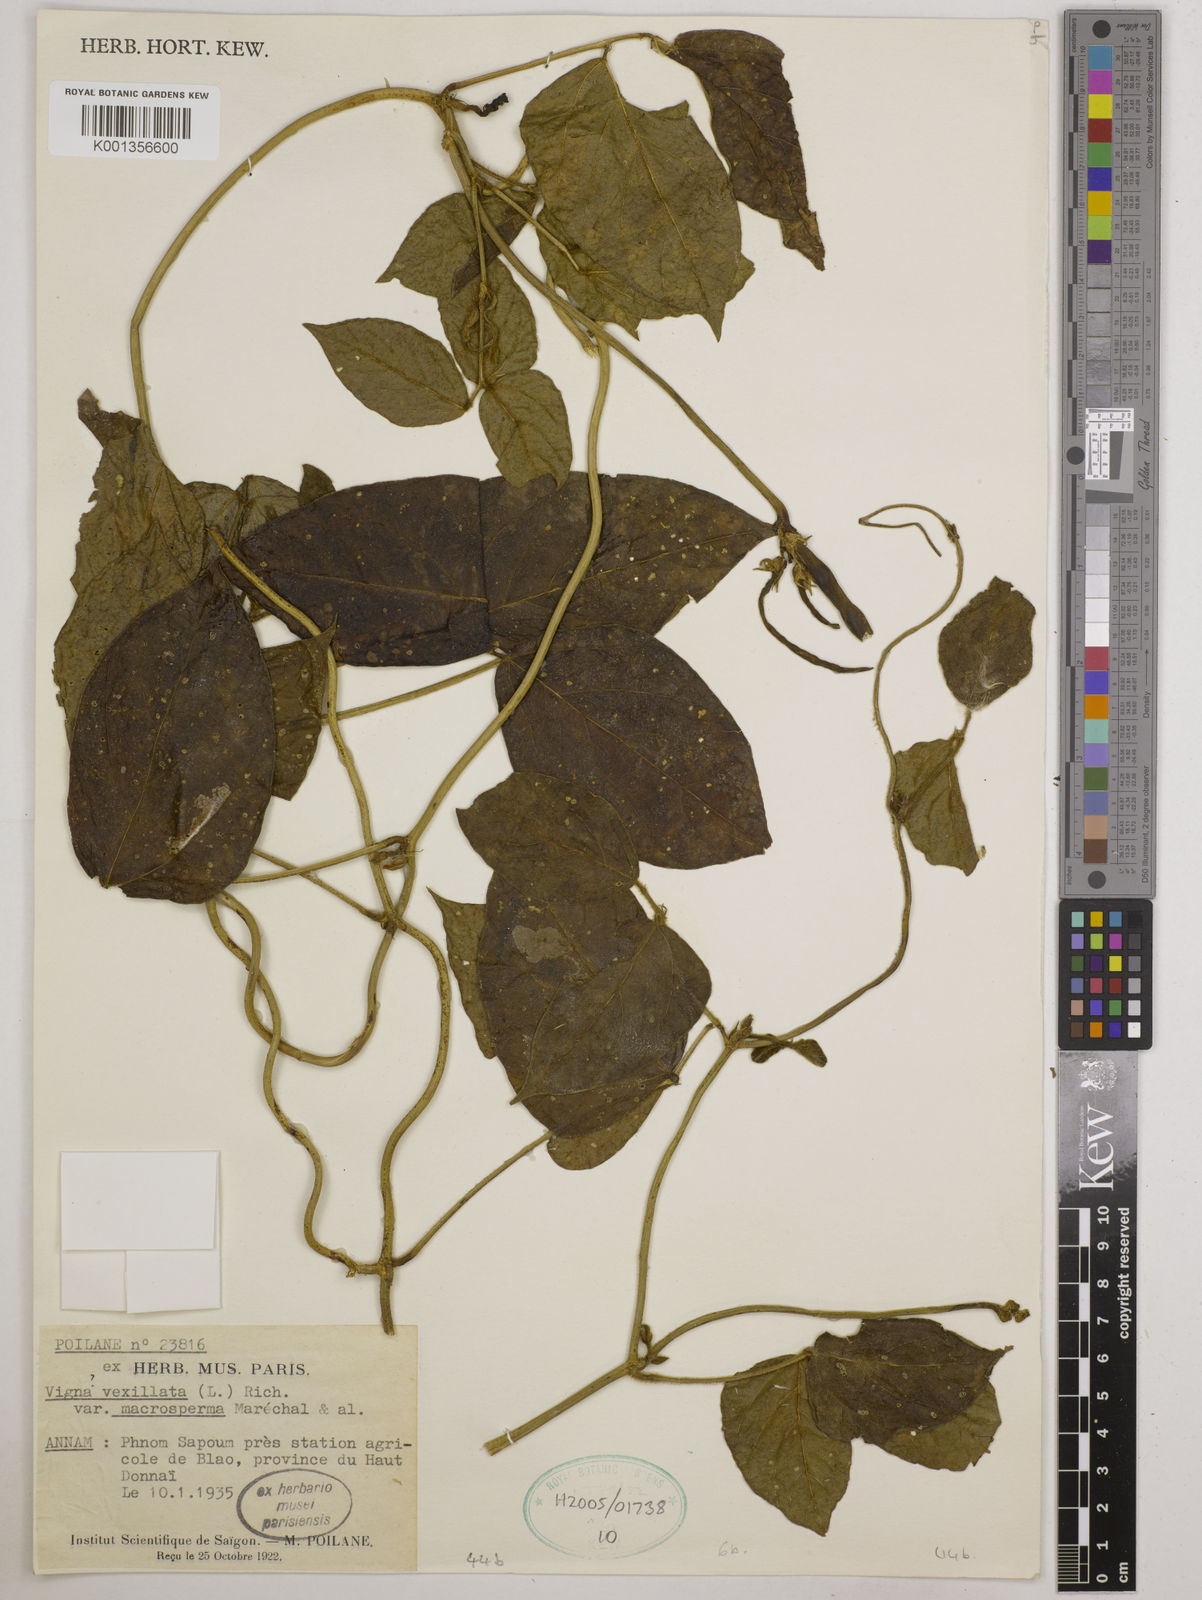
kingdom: Plantae
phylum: Tracheophyta
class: Magnoliopsida
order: Fabales
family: Fabaceae
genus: Vigna
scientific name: Vigna vexillata
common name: Zombi pea
